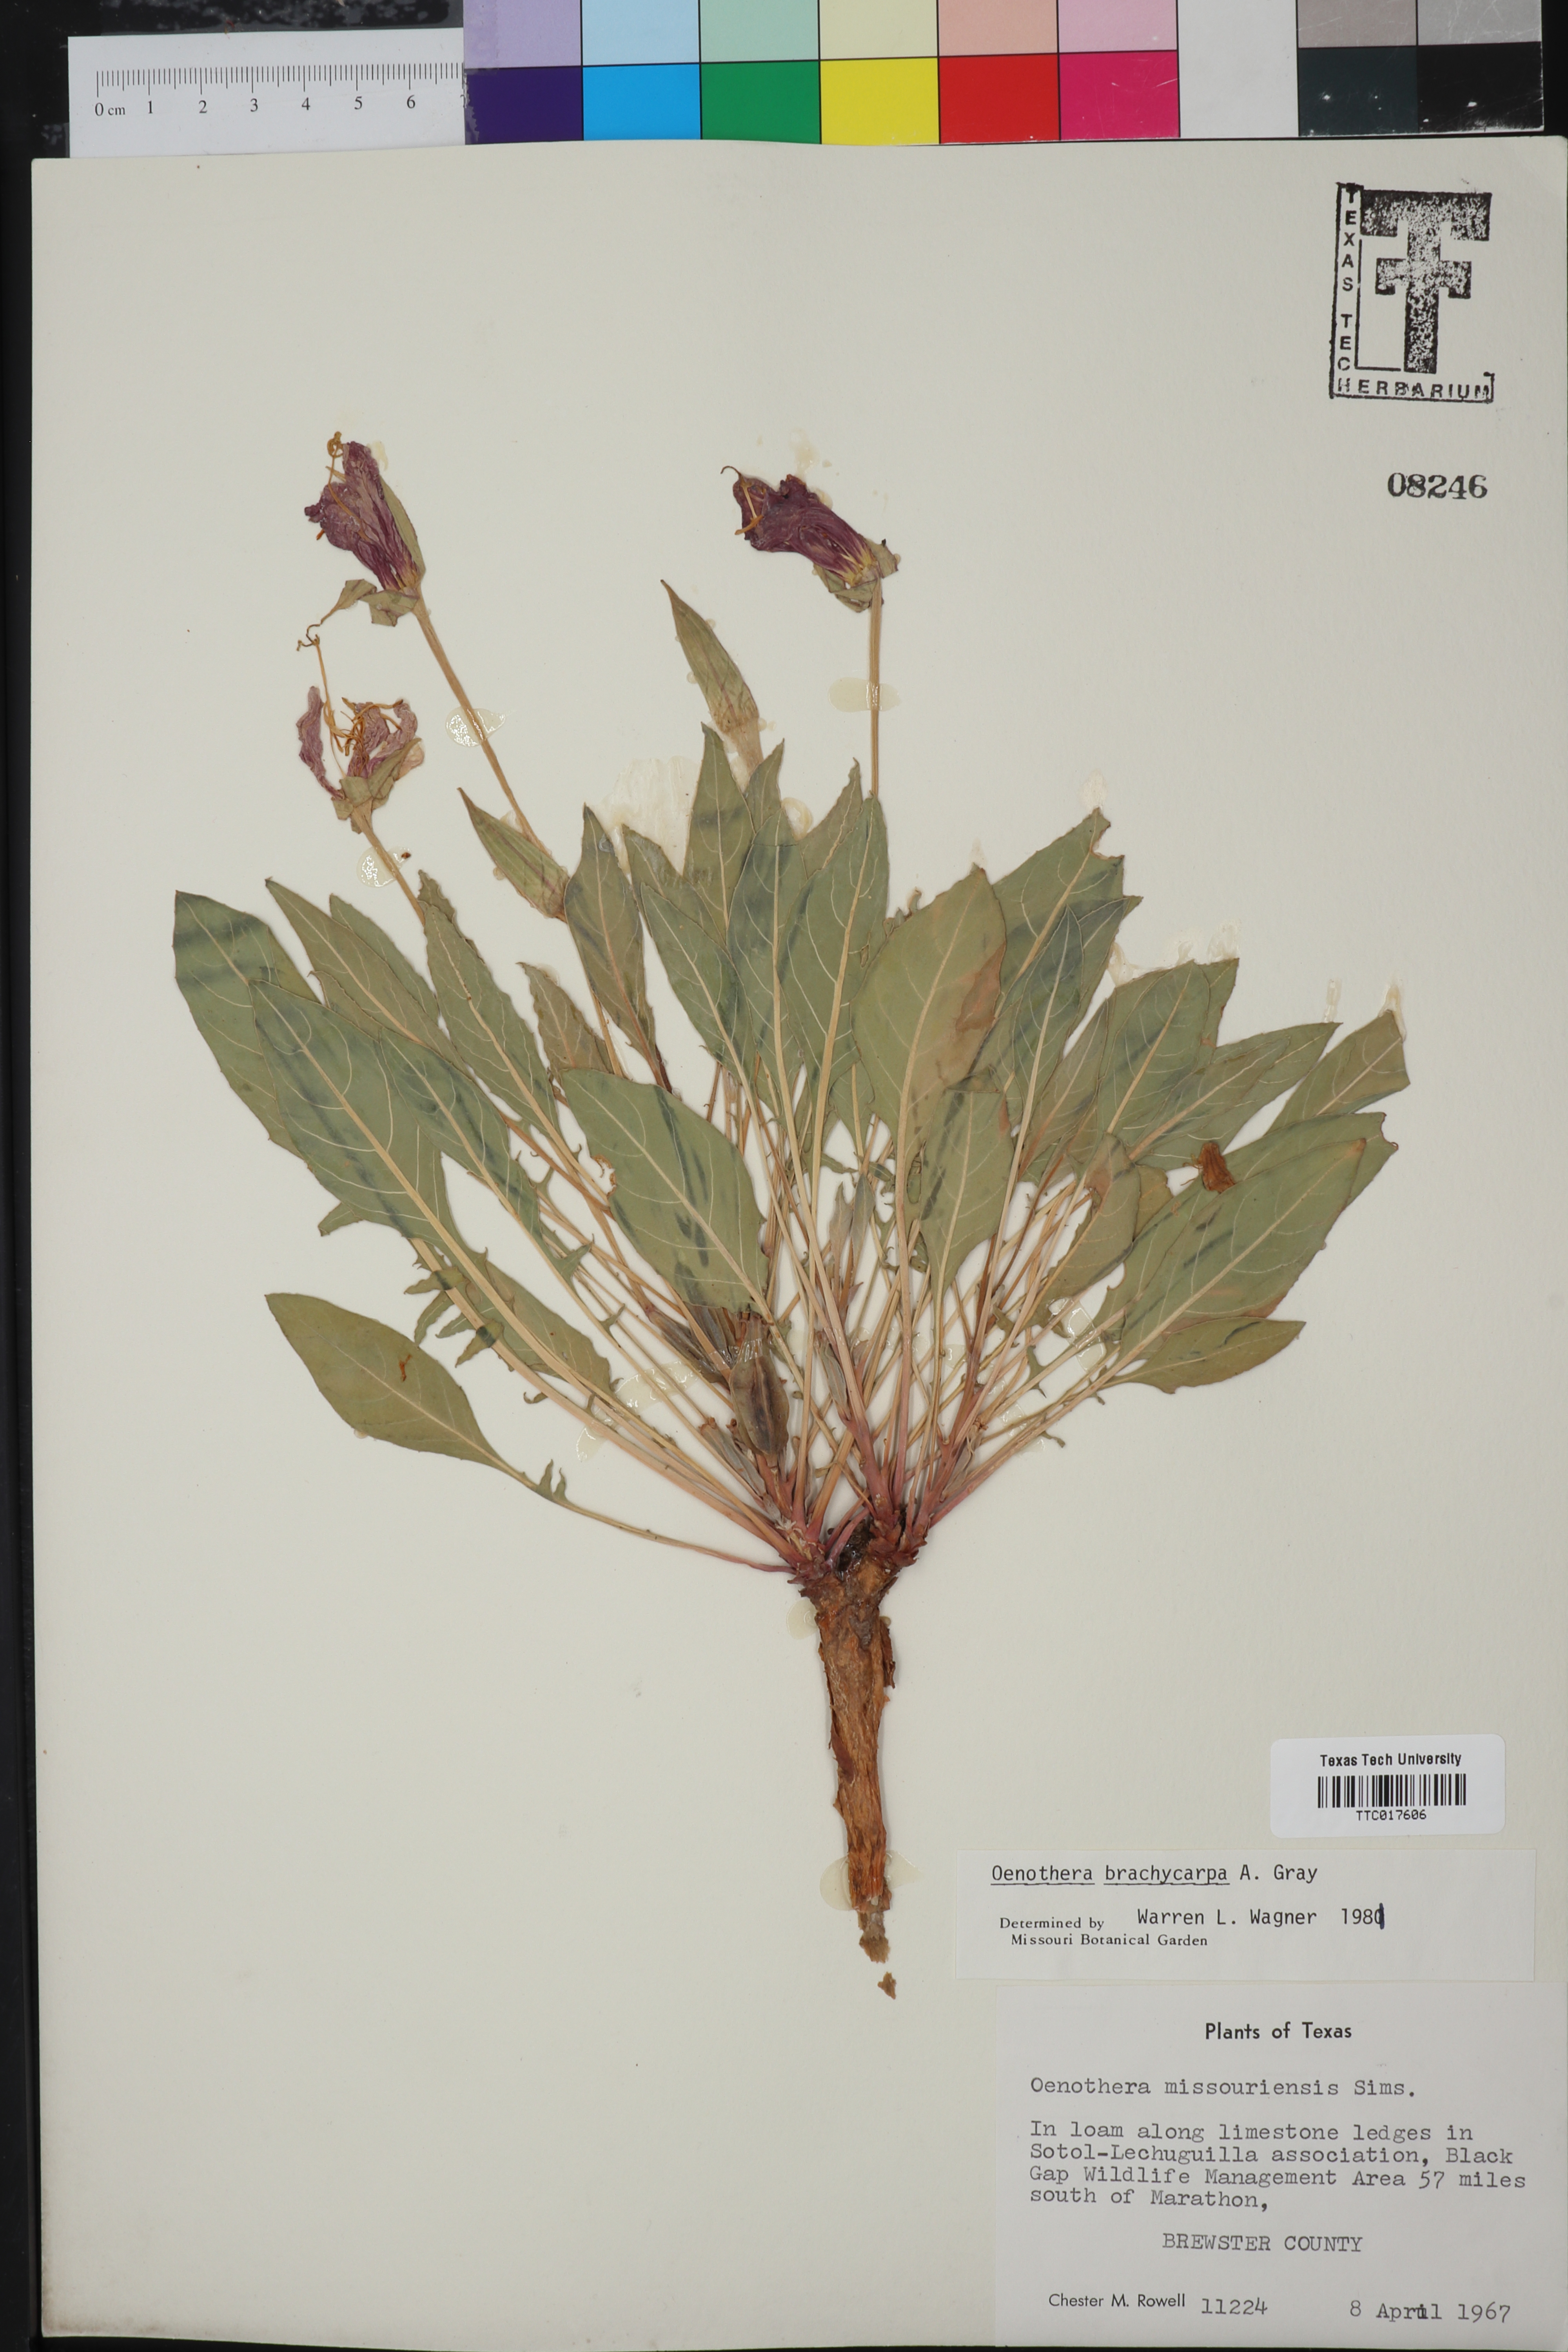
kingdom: Plantae
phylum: Tracheophyta
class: Magnoliopsida
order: Myrtales
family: Onagraceae
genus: Oenothera
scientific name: Oenothera brachycarpa
